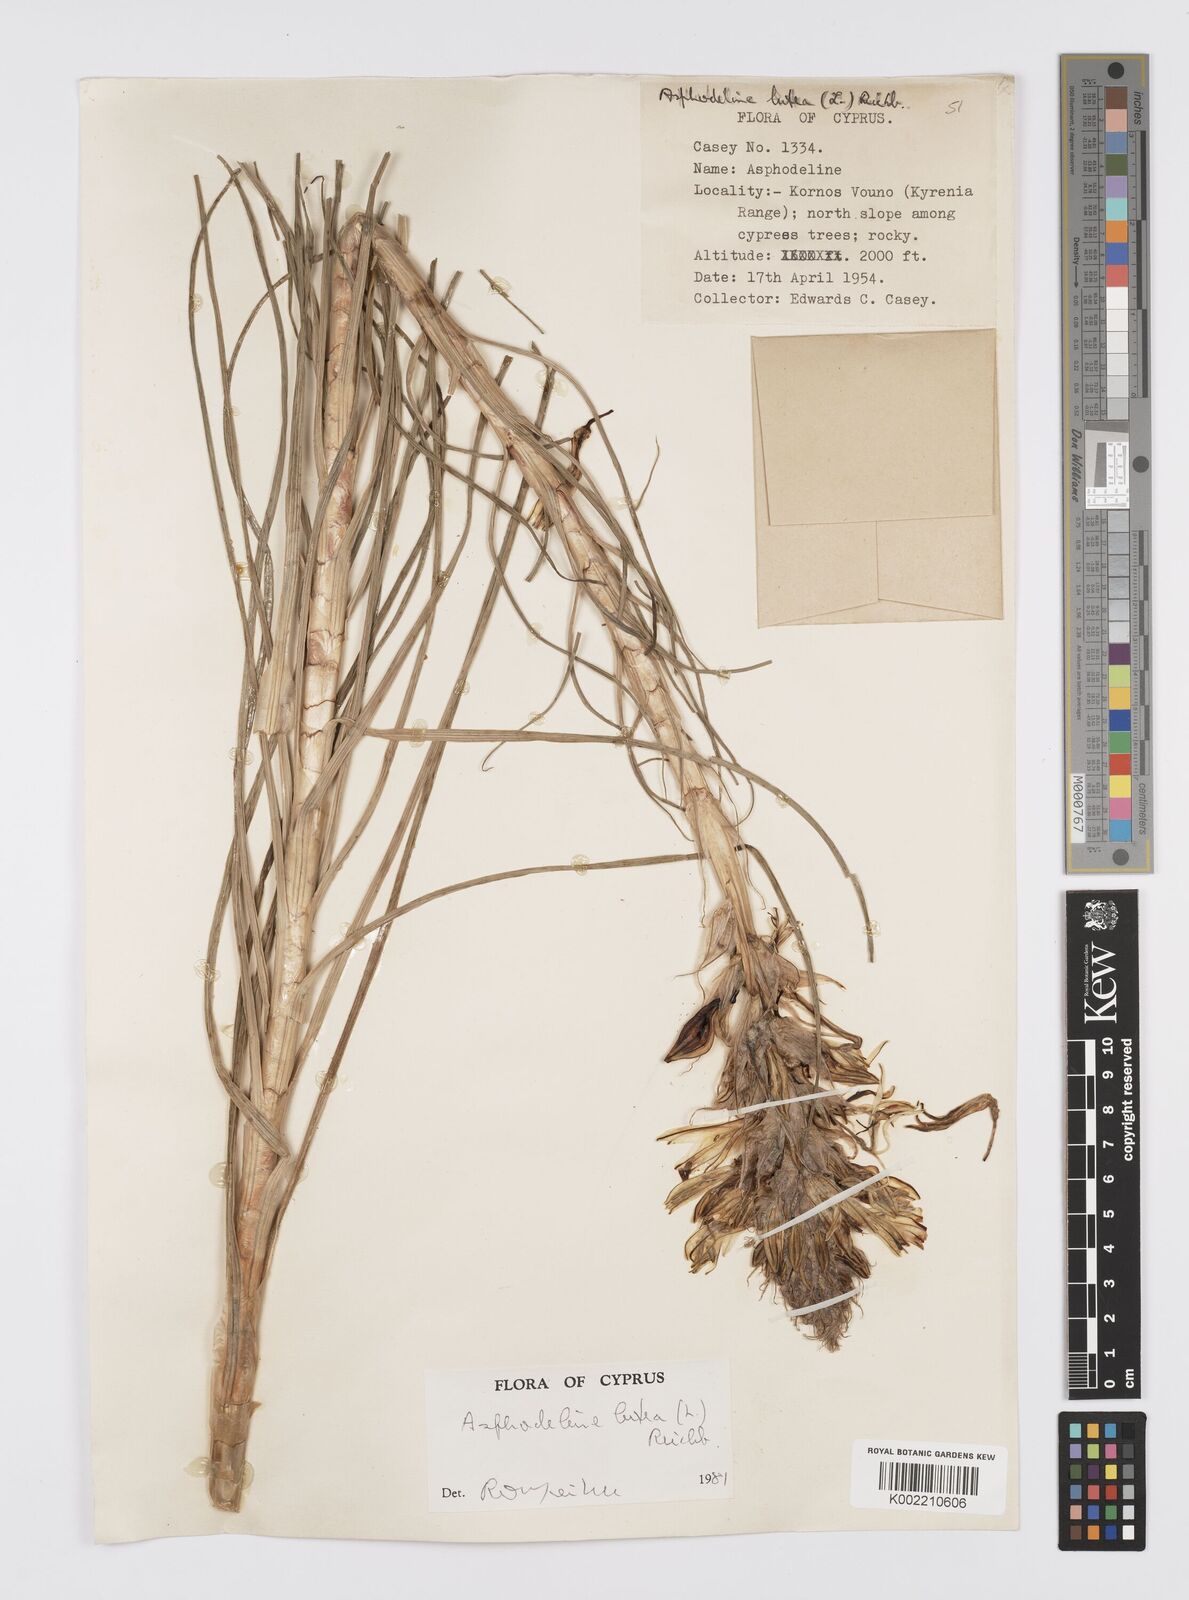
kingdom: Plantae
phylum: Tracheophyta
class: Liliopsida
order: Asparagales
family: Asphodelaceae
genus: Asphodeline
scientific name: Asphodeline lutea
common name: Yellow asphodel
